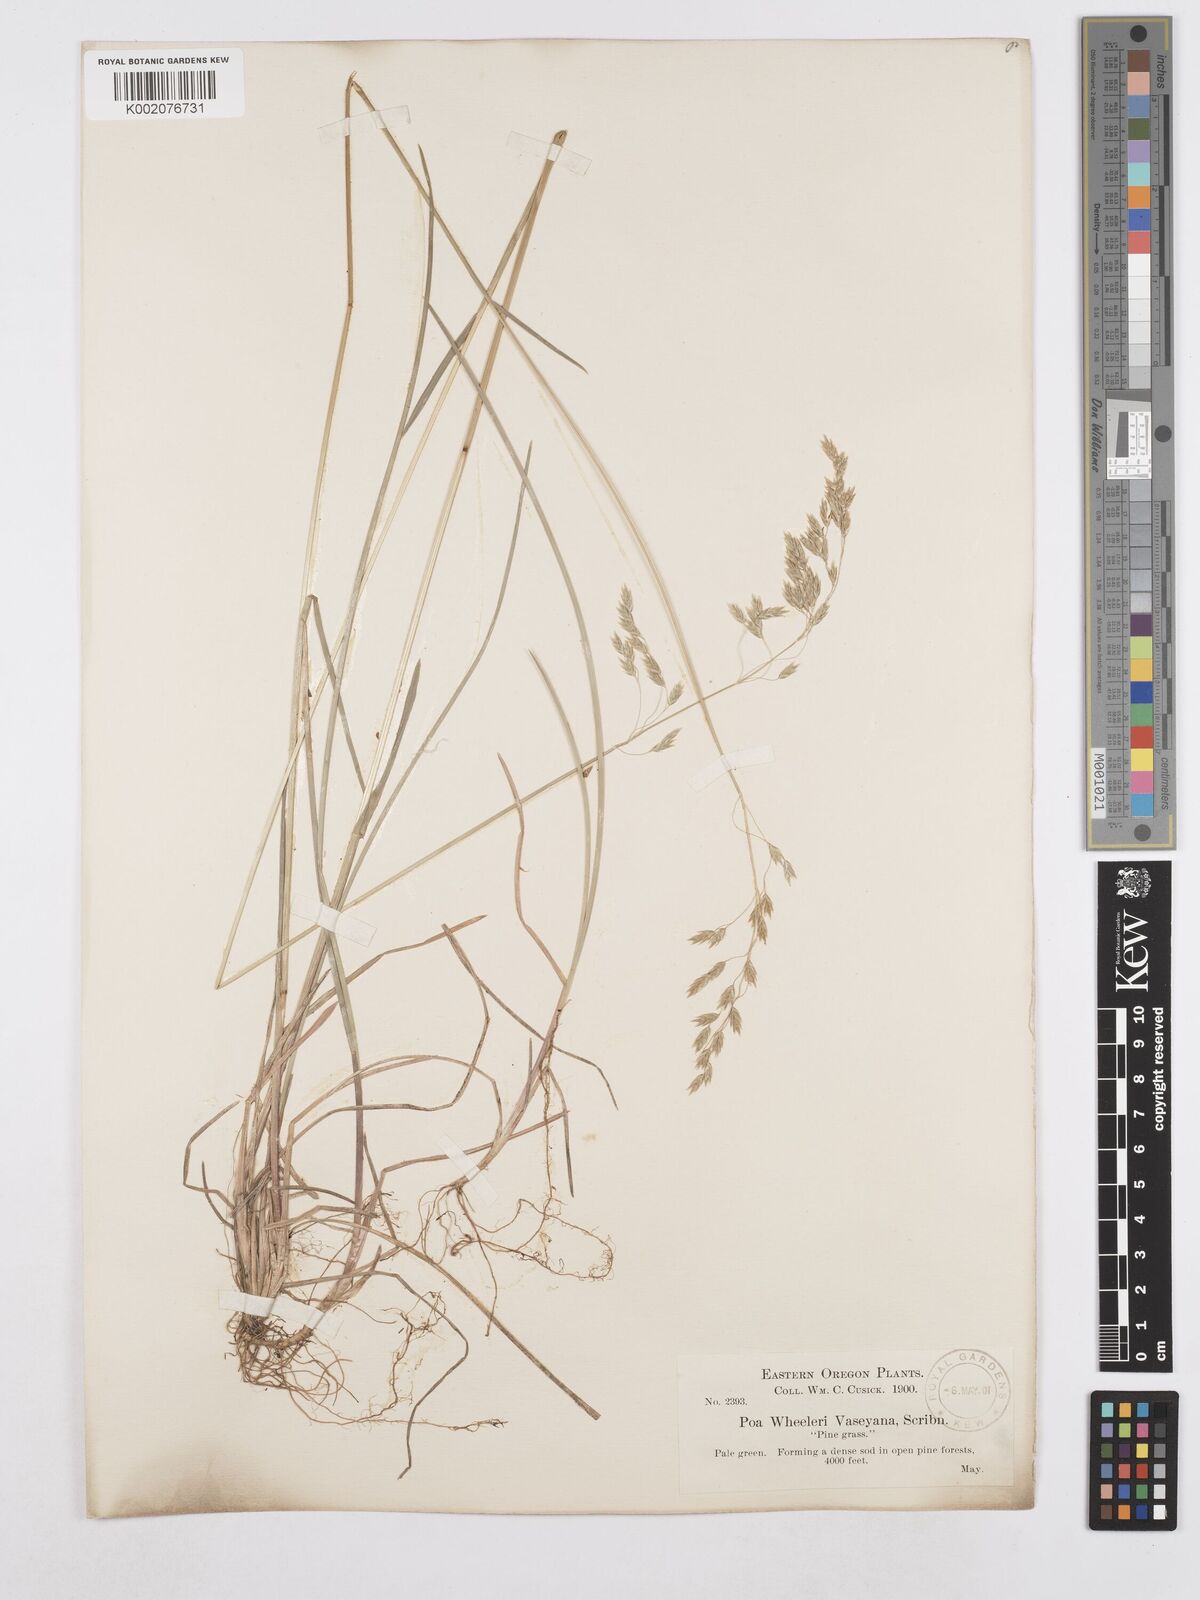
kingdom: Plantae
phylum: Tracheophyta
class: Liliopsida
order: Poales
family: Poaceae
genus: Poa
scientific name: Poa wheeleri
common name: Wheeler's bluegrass
